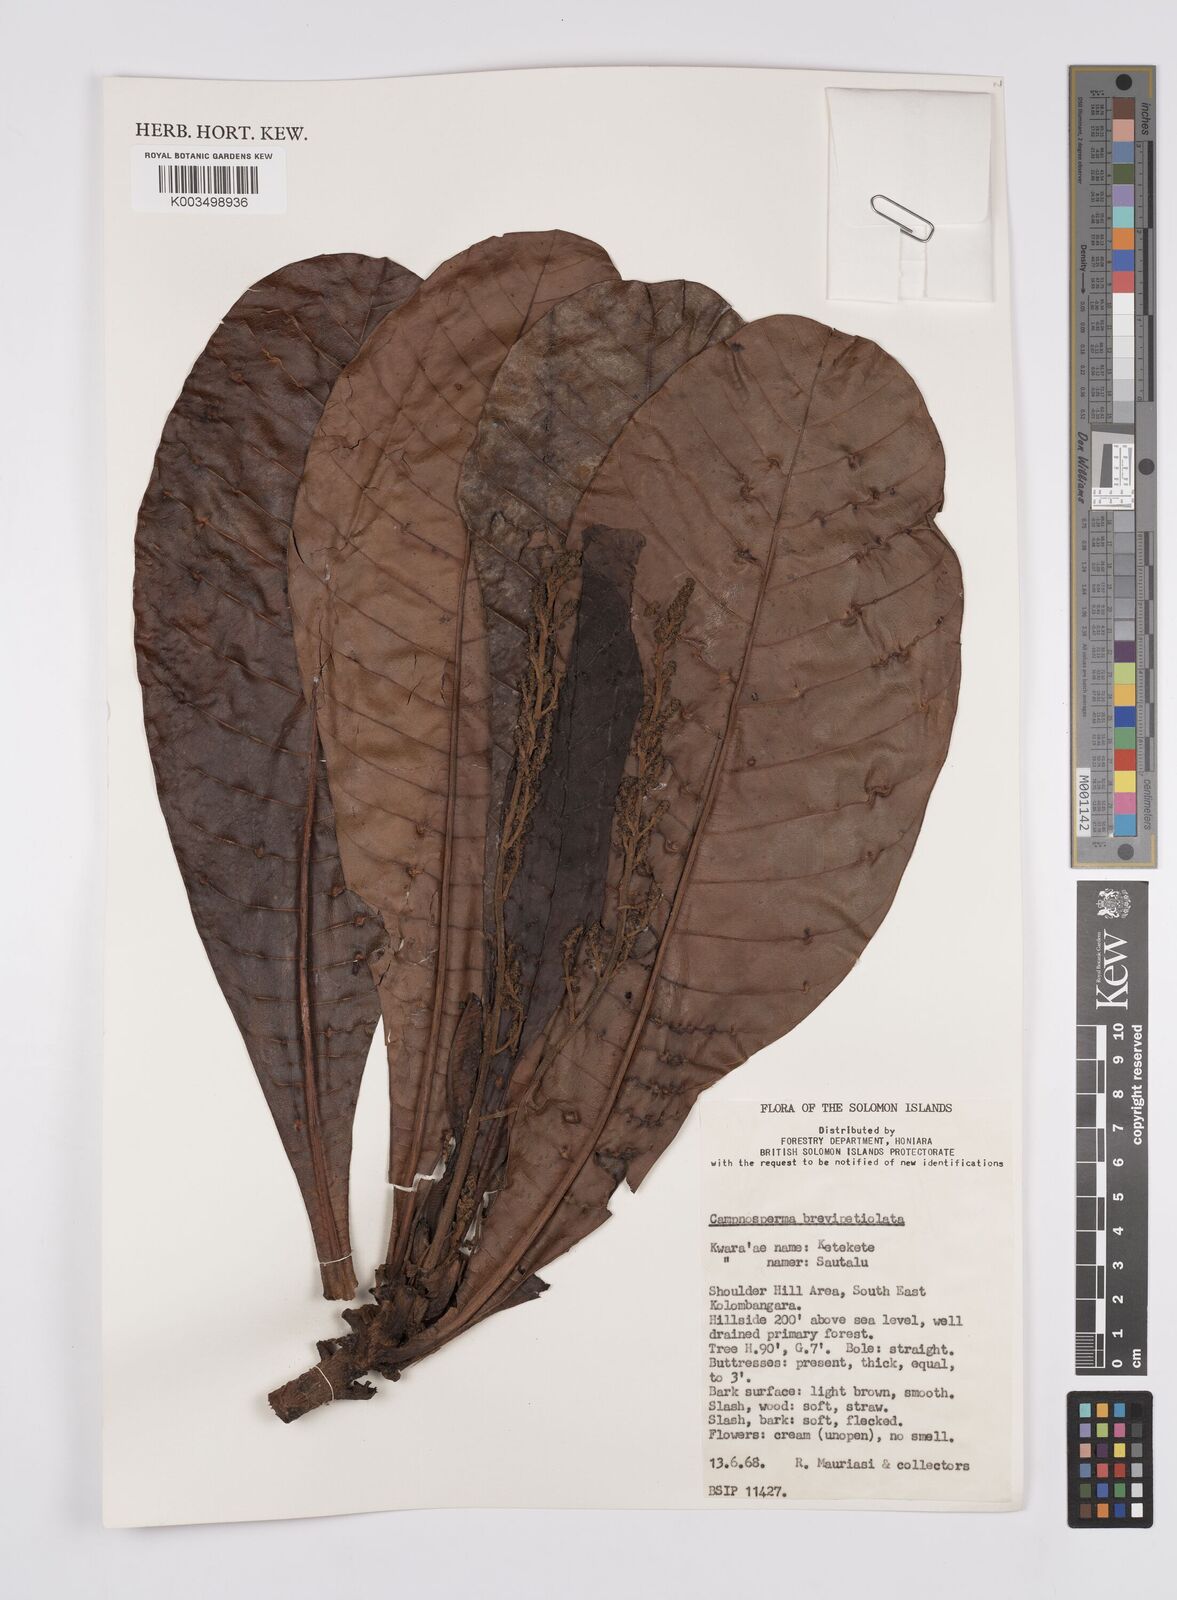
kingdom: Plantae
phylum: Tracheophyta
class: Magnoliopsida
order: Sapindales
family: Anacardiaceae
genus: Campnosperma
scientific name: Campnosperma brevipetiolatum
